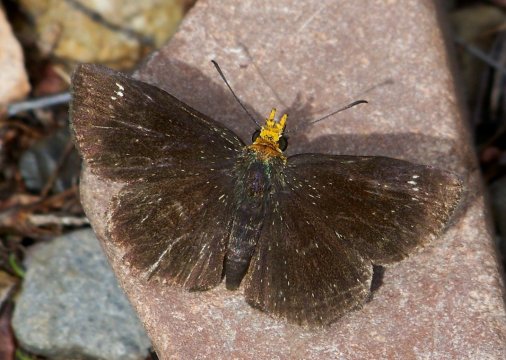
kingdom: Animalia
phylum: Arthropoda
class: Insecta
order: Lepidoptera
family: Hesperiidae
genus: Staphylus
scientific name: Staphylus ceos
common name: Golden-headed Scallopwing
